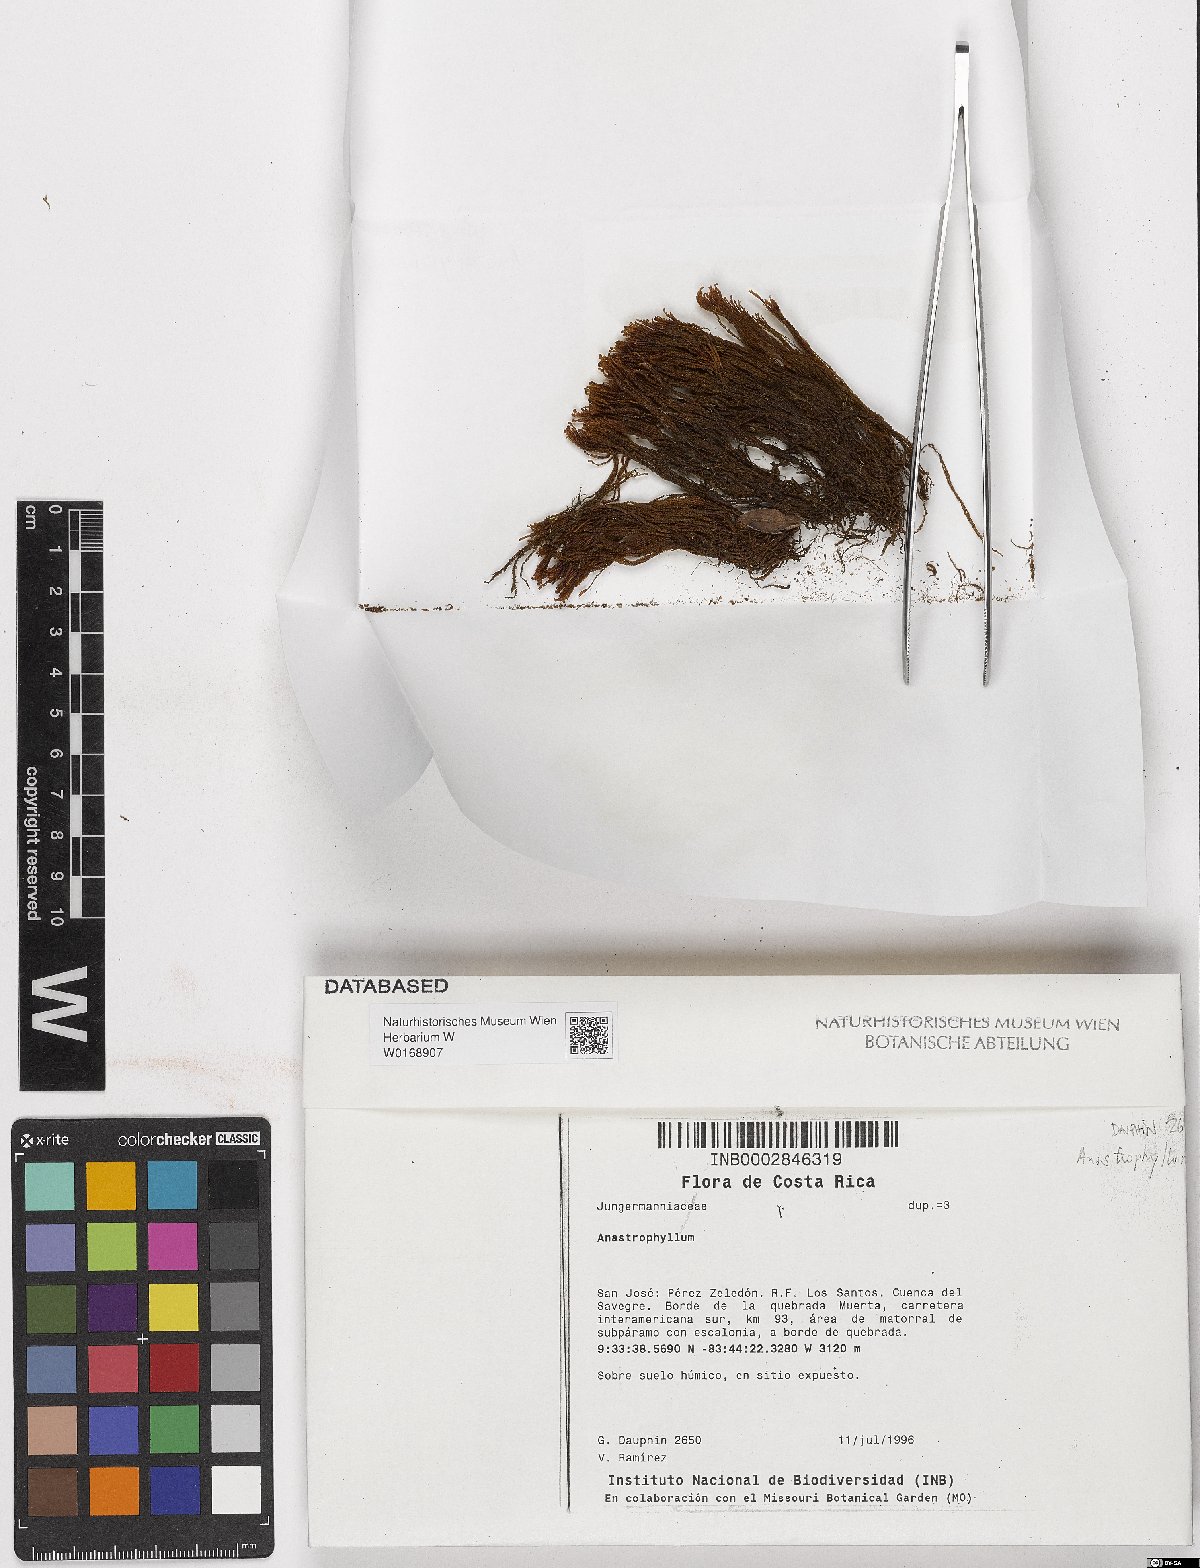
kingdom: Plantae
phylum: Marchantiophyta
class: Jungermanniopsida
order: Jungermanniales
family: Anastrophyllaceae
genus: Anastrophyllum
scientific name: Anastrophyllum
